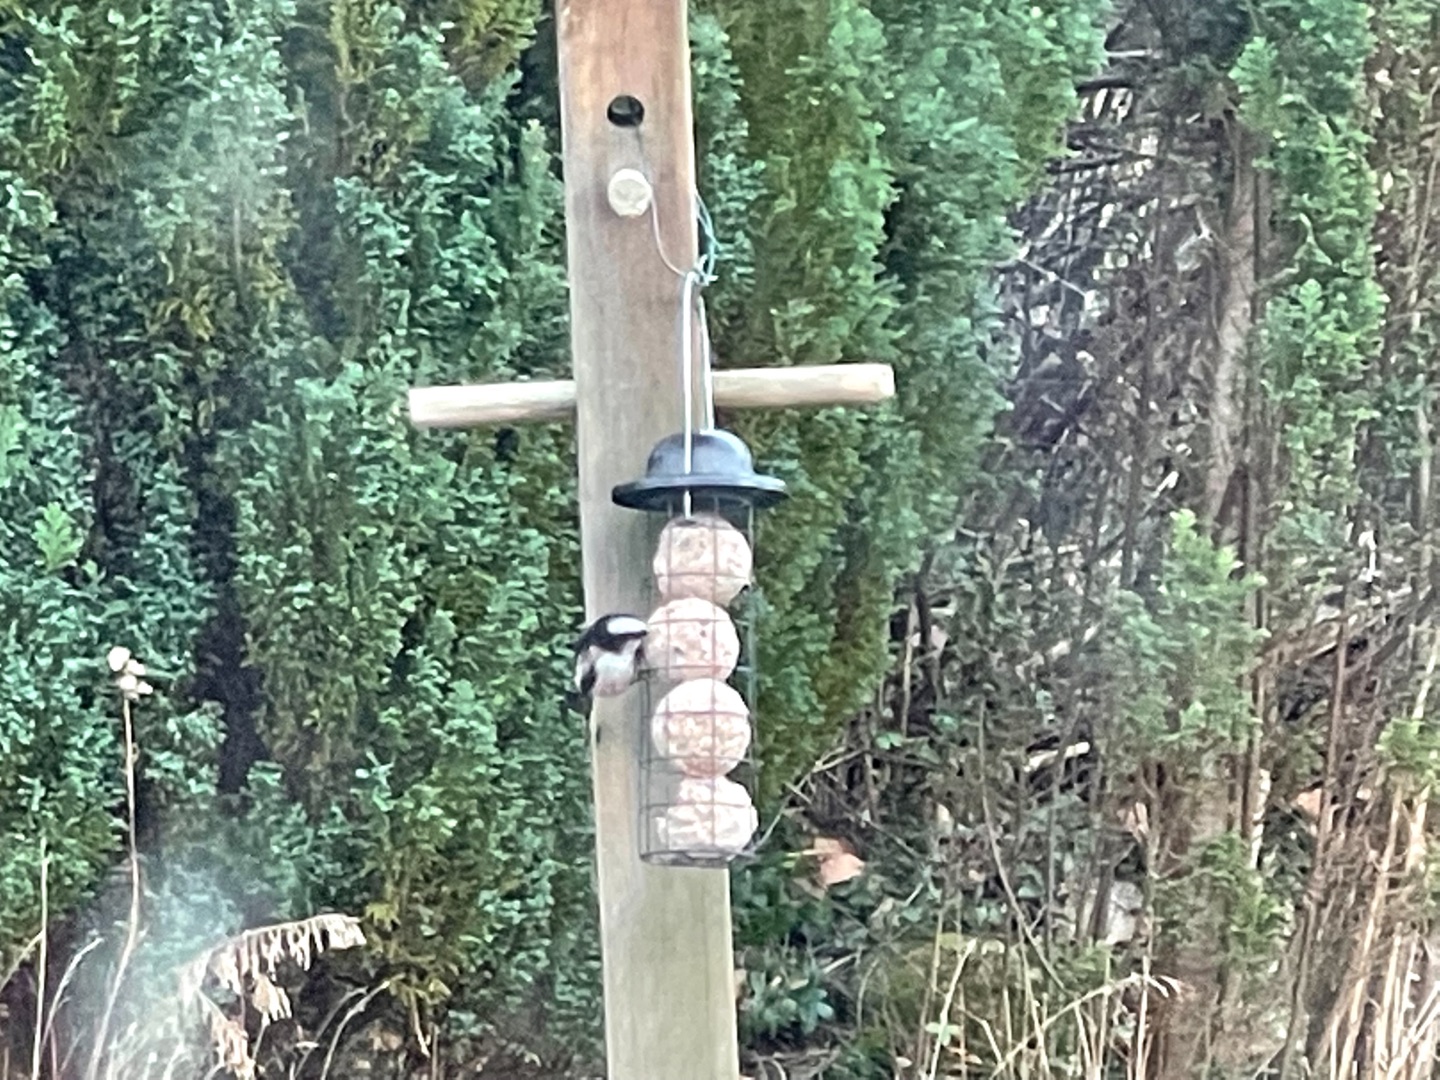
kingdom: Animalia
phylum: Chordata
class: Aves
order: Passeriformes
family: Aegithalidae
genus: Aegithalos
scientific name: Aegithalos caudatus
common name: Sydlig halemejse
